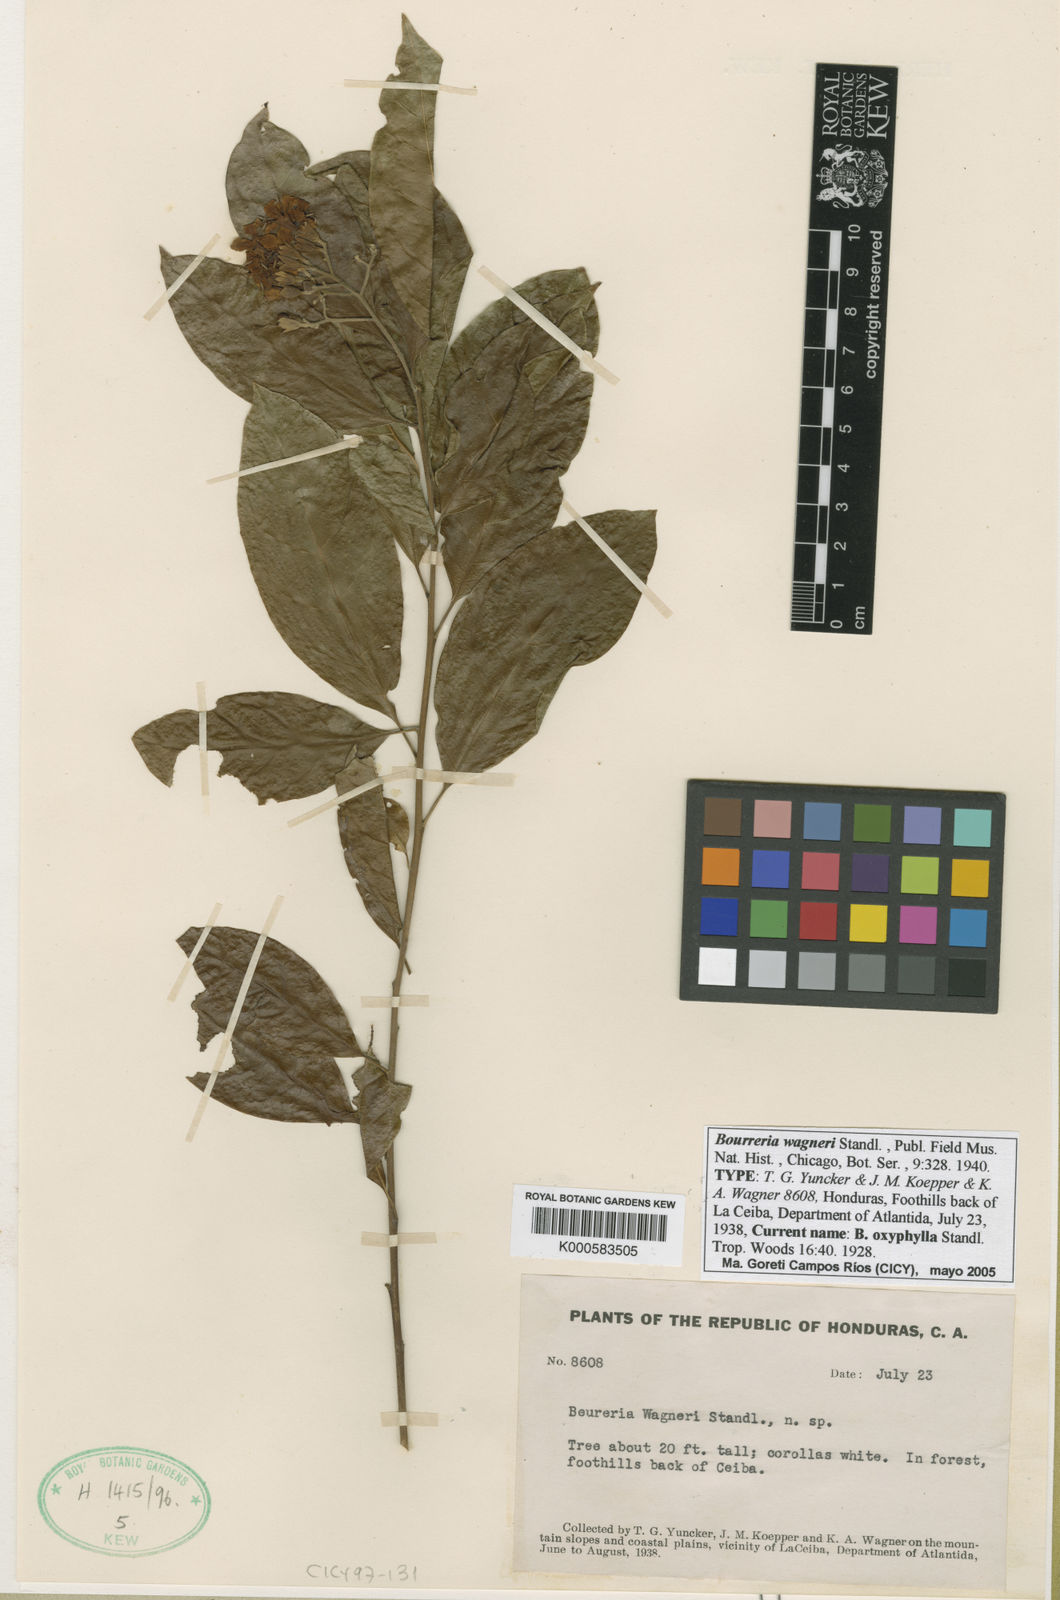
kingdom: Plantae
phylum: Tracheophyta
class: Magnoliopsida
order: Boraginales
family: Ehretiaceae
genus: Bourreria
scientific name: Bourreria mollis
